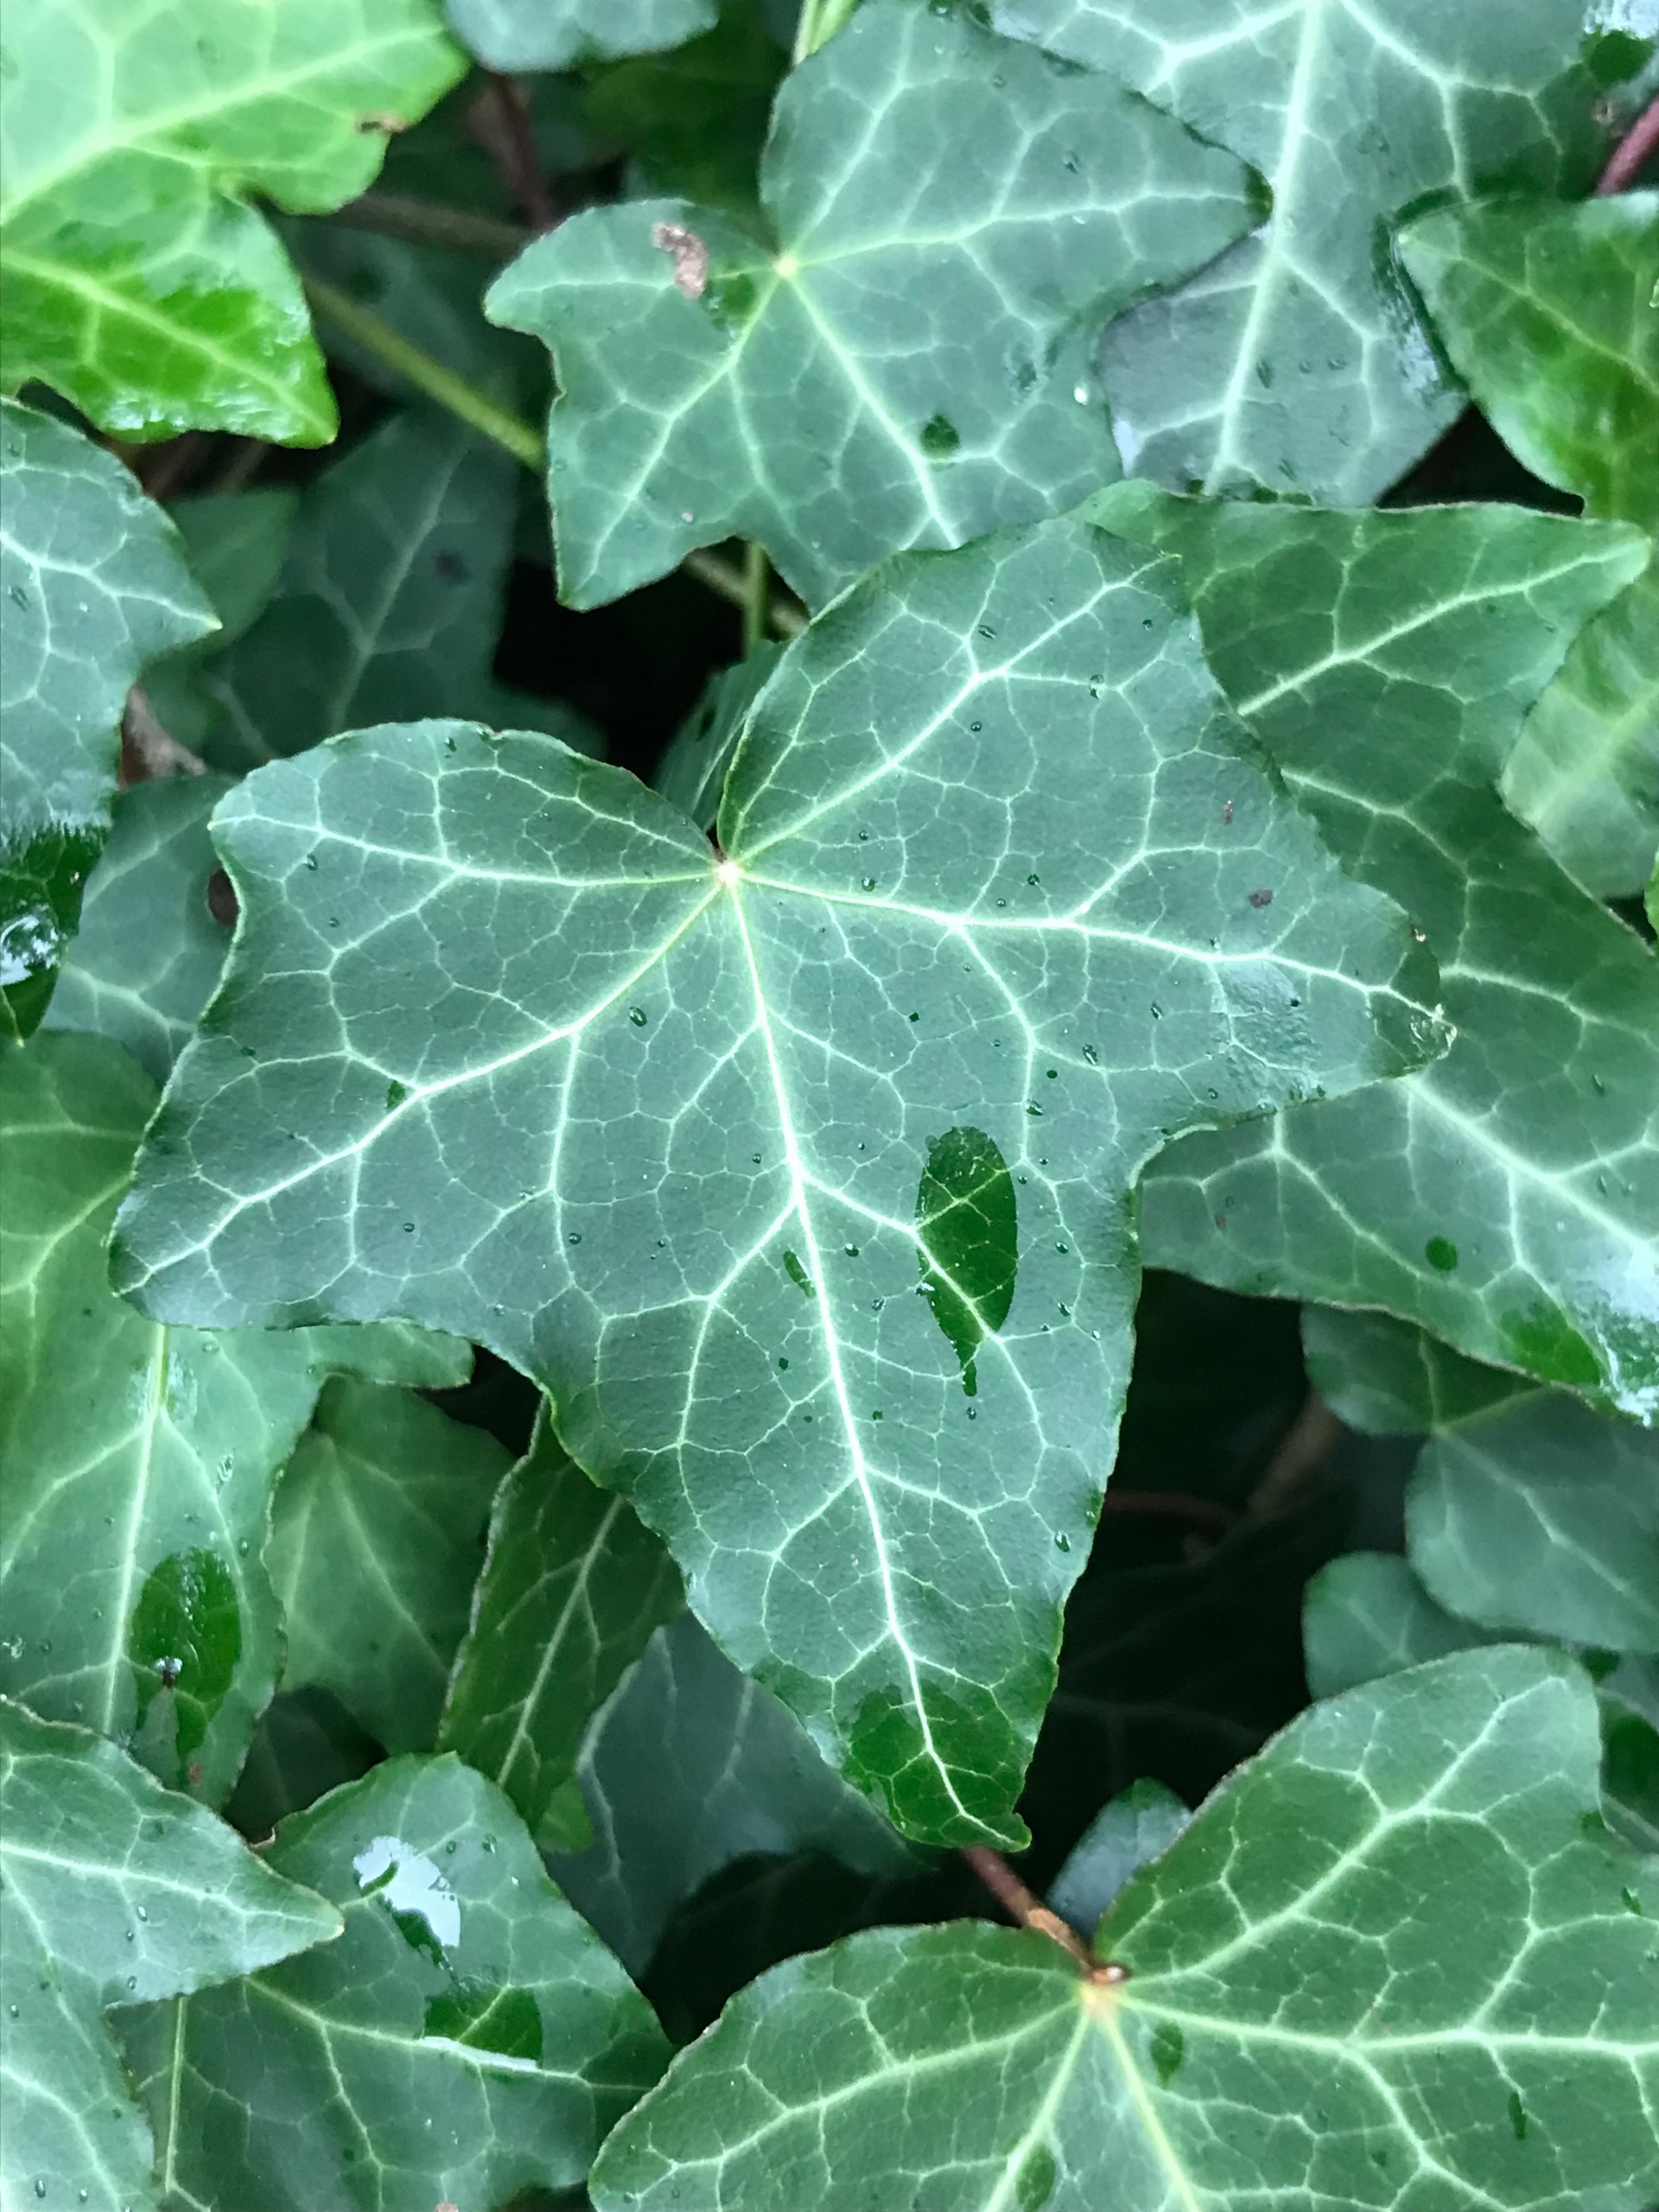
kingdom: Plantae
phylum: Tracheophyta
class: Magnoliopsida
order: Apiales
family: Araliaceae
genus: Hedera
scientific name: Hedera helix
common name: Vedbend
